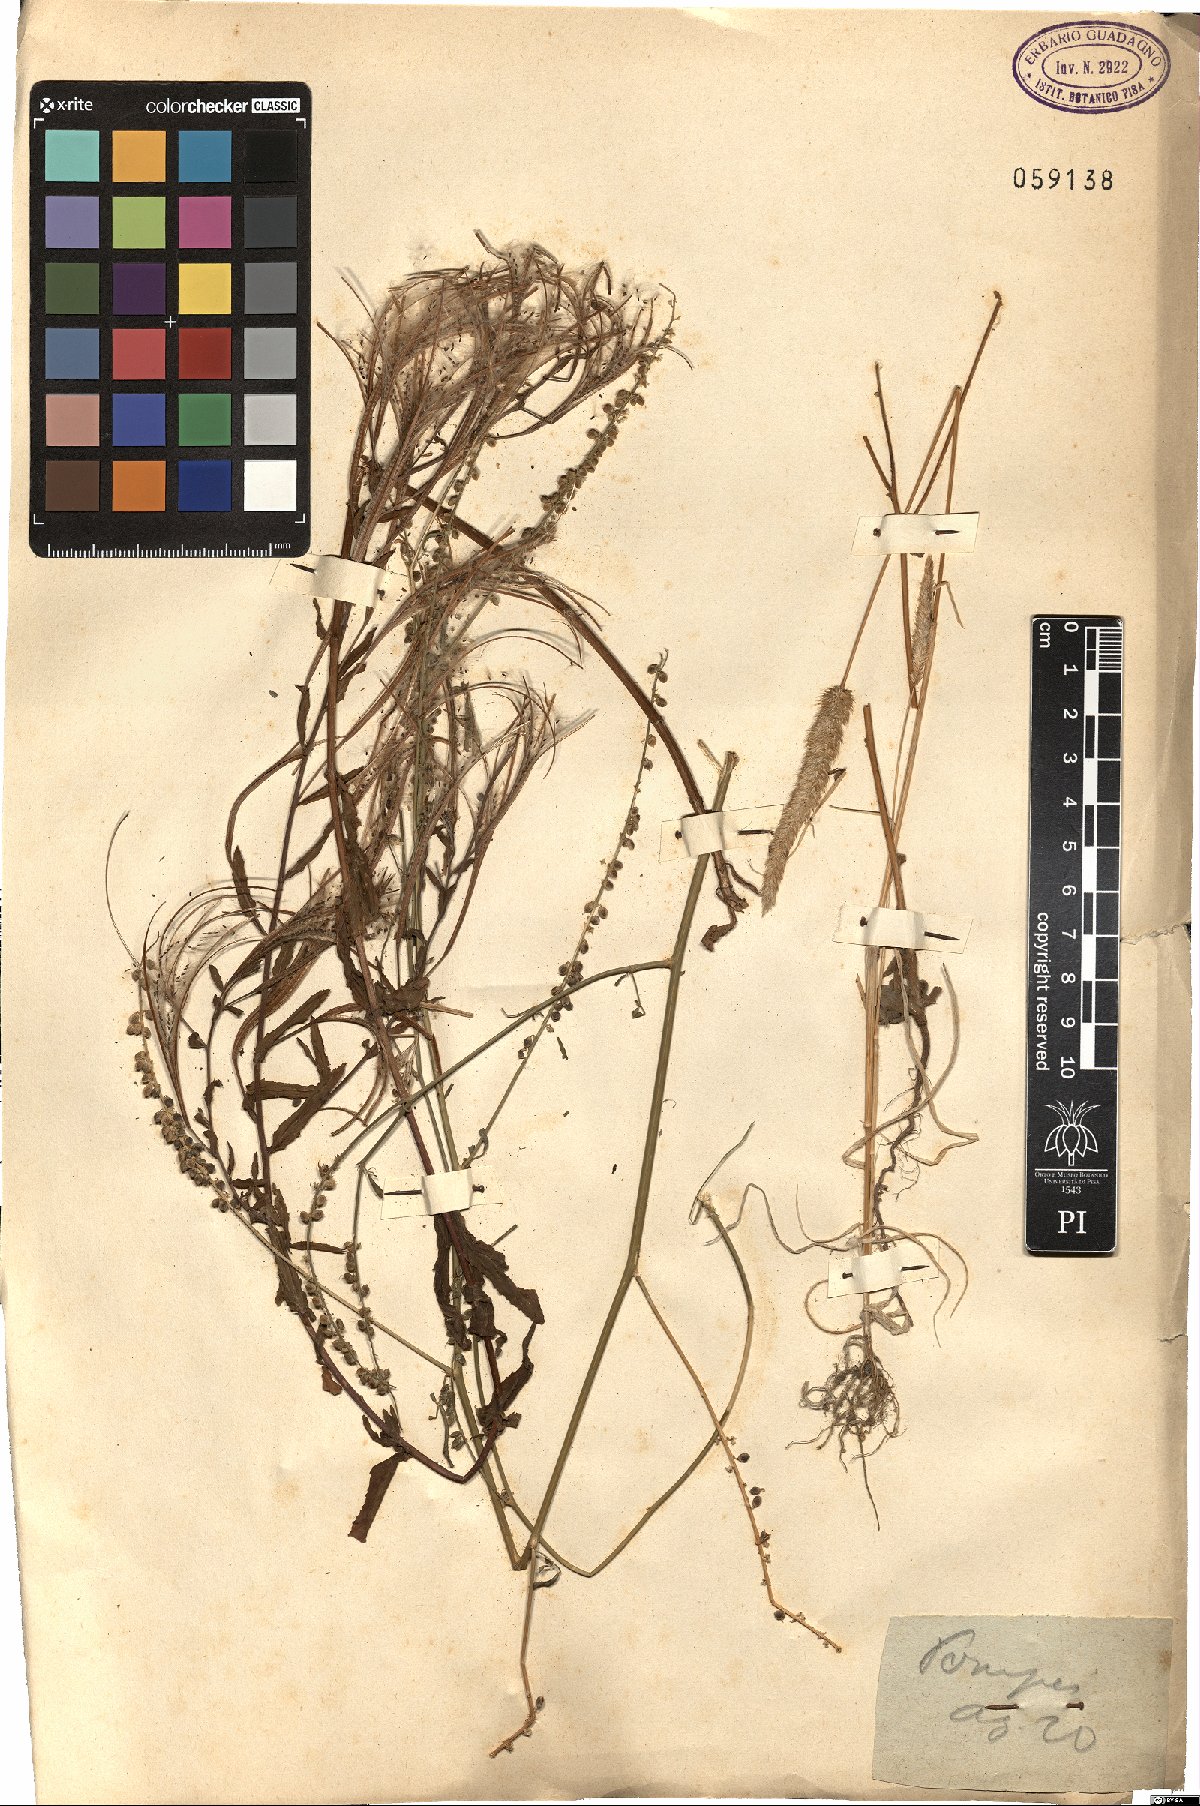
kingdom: Plantae
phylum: Tracheophyta
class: Liliopsida
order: Poales
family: Poaceae
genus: Rostraria
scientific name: Rostraria
